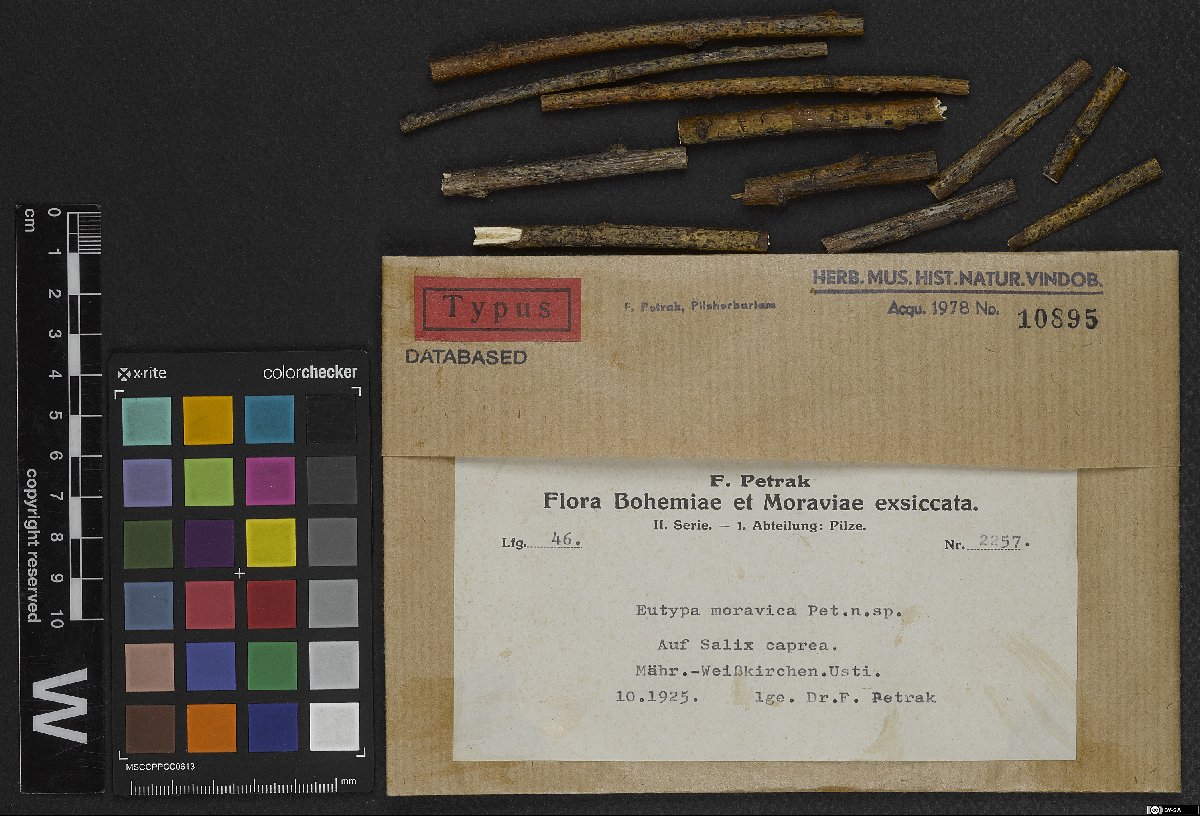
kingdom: Fungi
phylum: Ascomycota
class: Sordariomycetes
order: Xylariales
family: Barrmaeliaceae
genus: Barrmaelia
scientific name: Barrmaelia moravica
